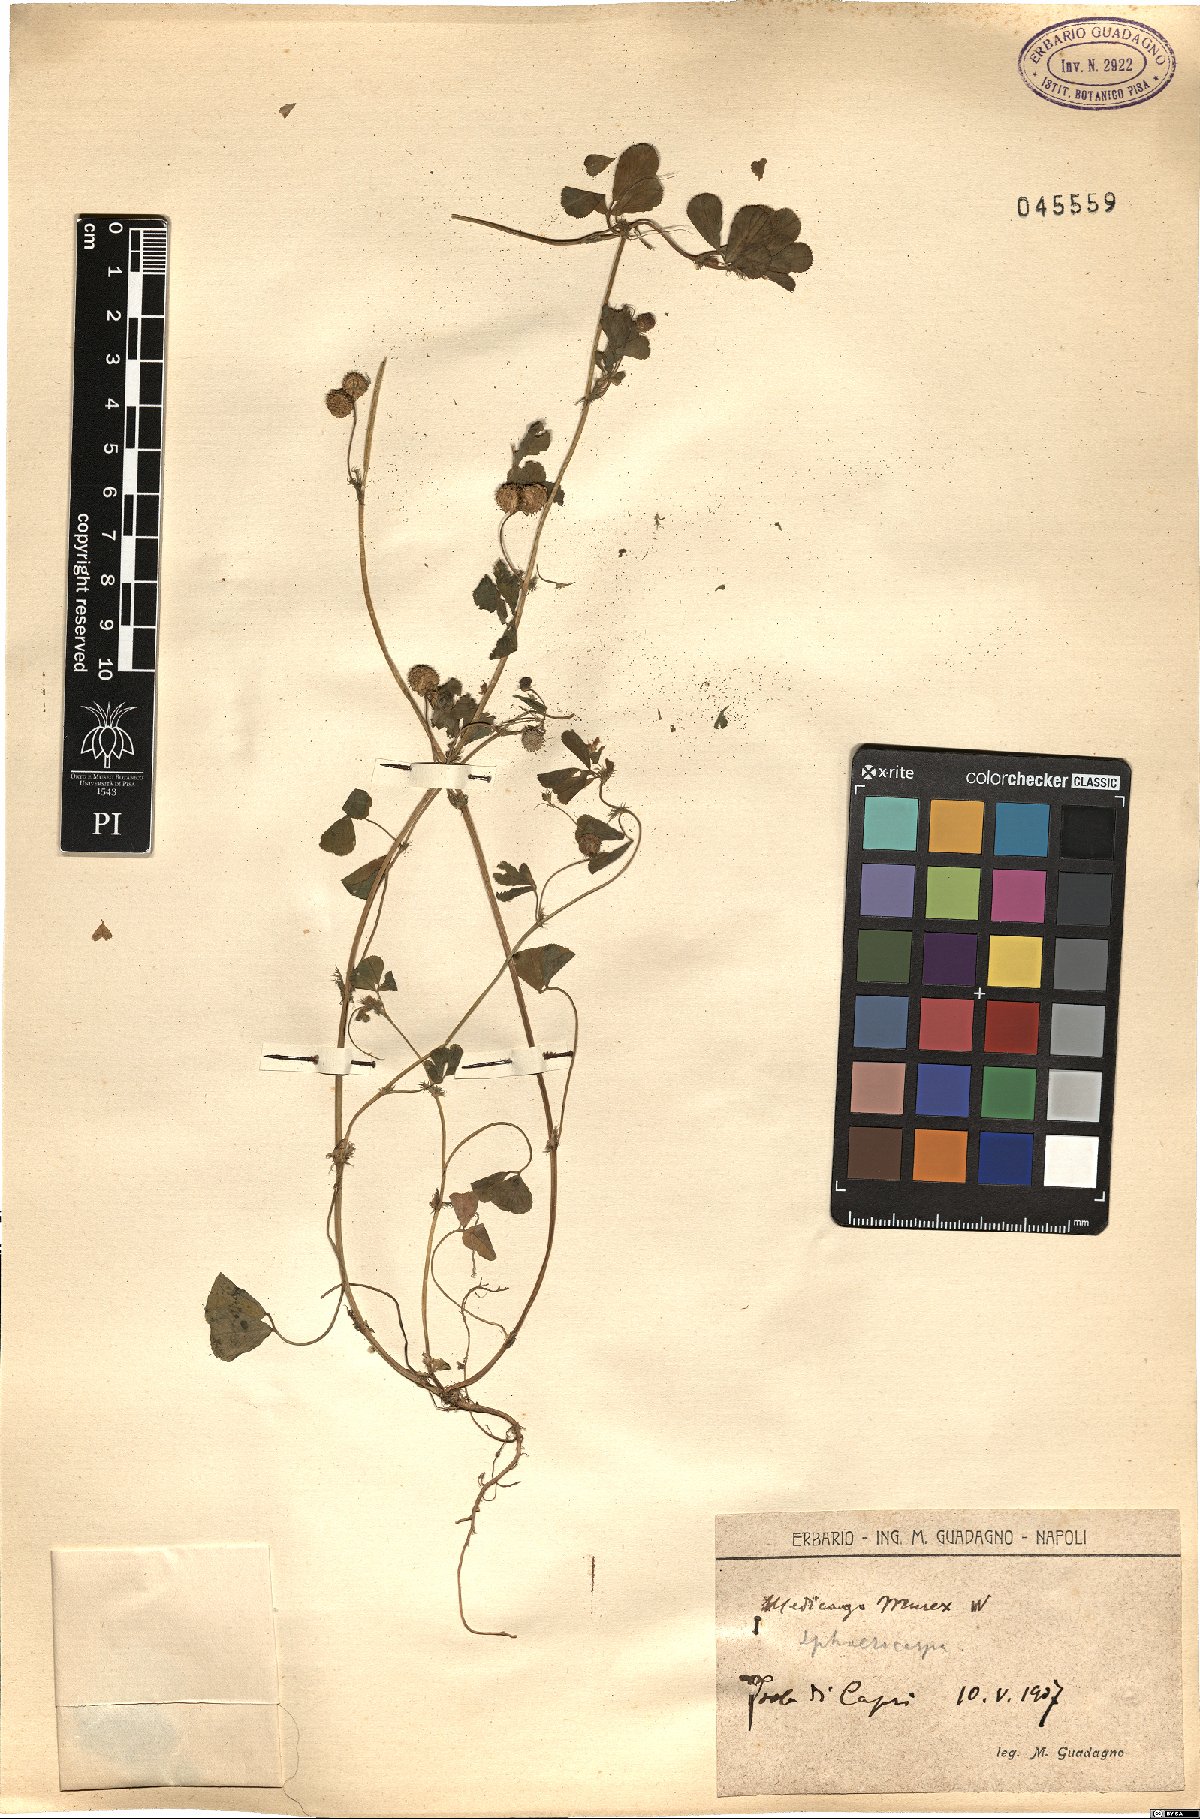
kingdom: Plantae
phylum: Tracheophyta
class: Magnoliopsida
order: Fabales
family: Fabaceae
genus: Medicago
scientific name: Medicago murex
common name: Murex
